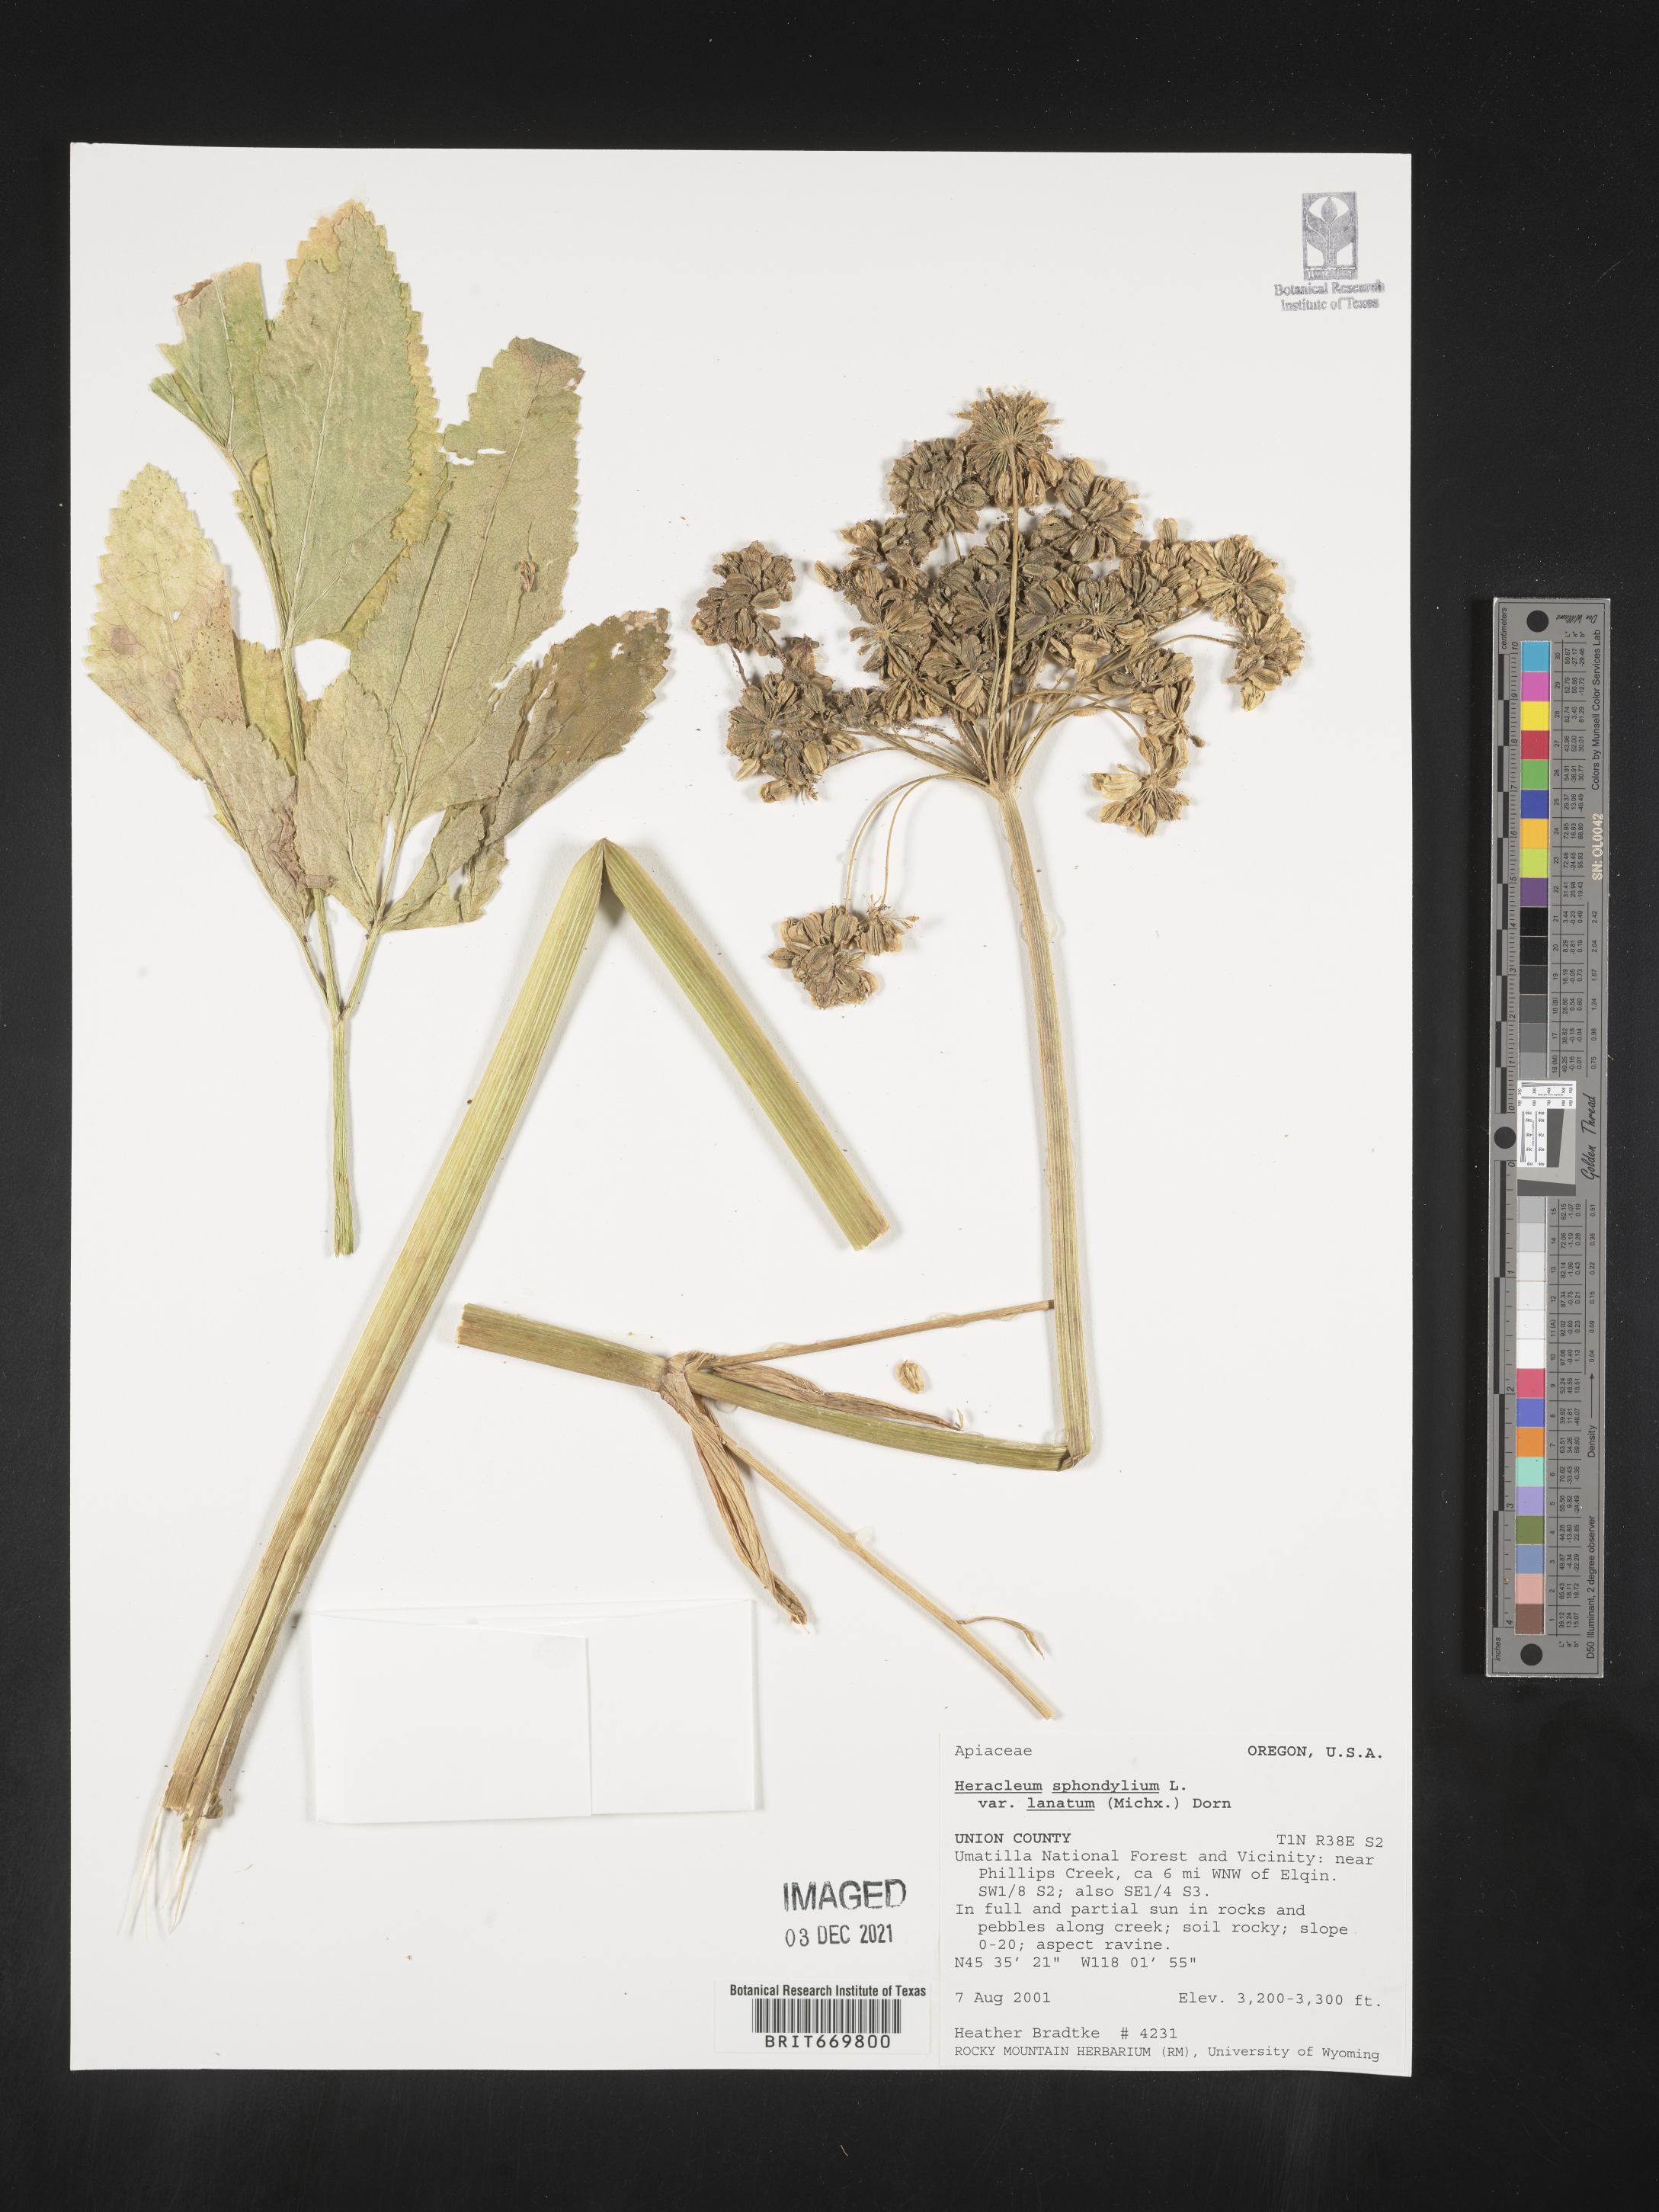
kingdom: Plantae
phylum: Tracheophyta
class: Magnoliopsida
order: Apiales
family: Apiaceae
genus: Heracleum
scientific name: Heracleum
